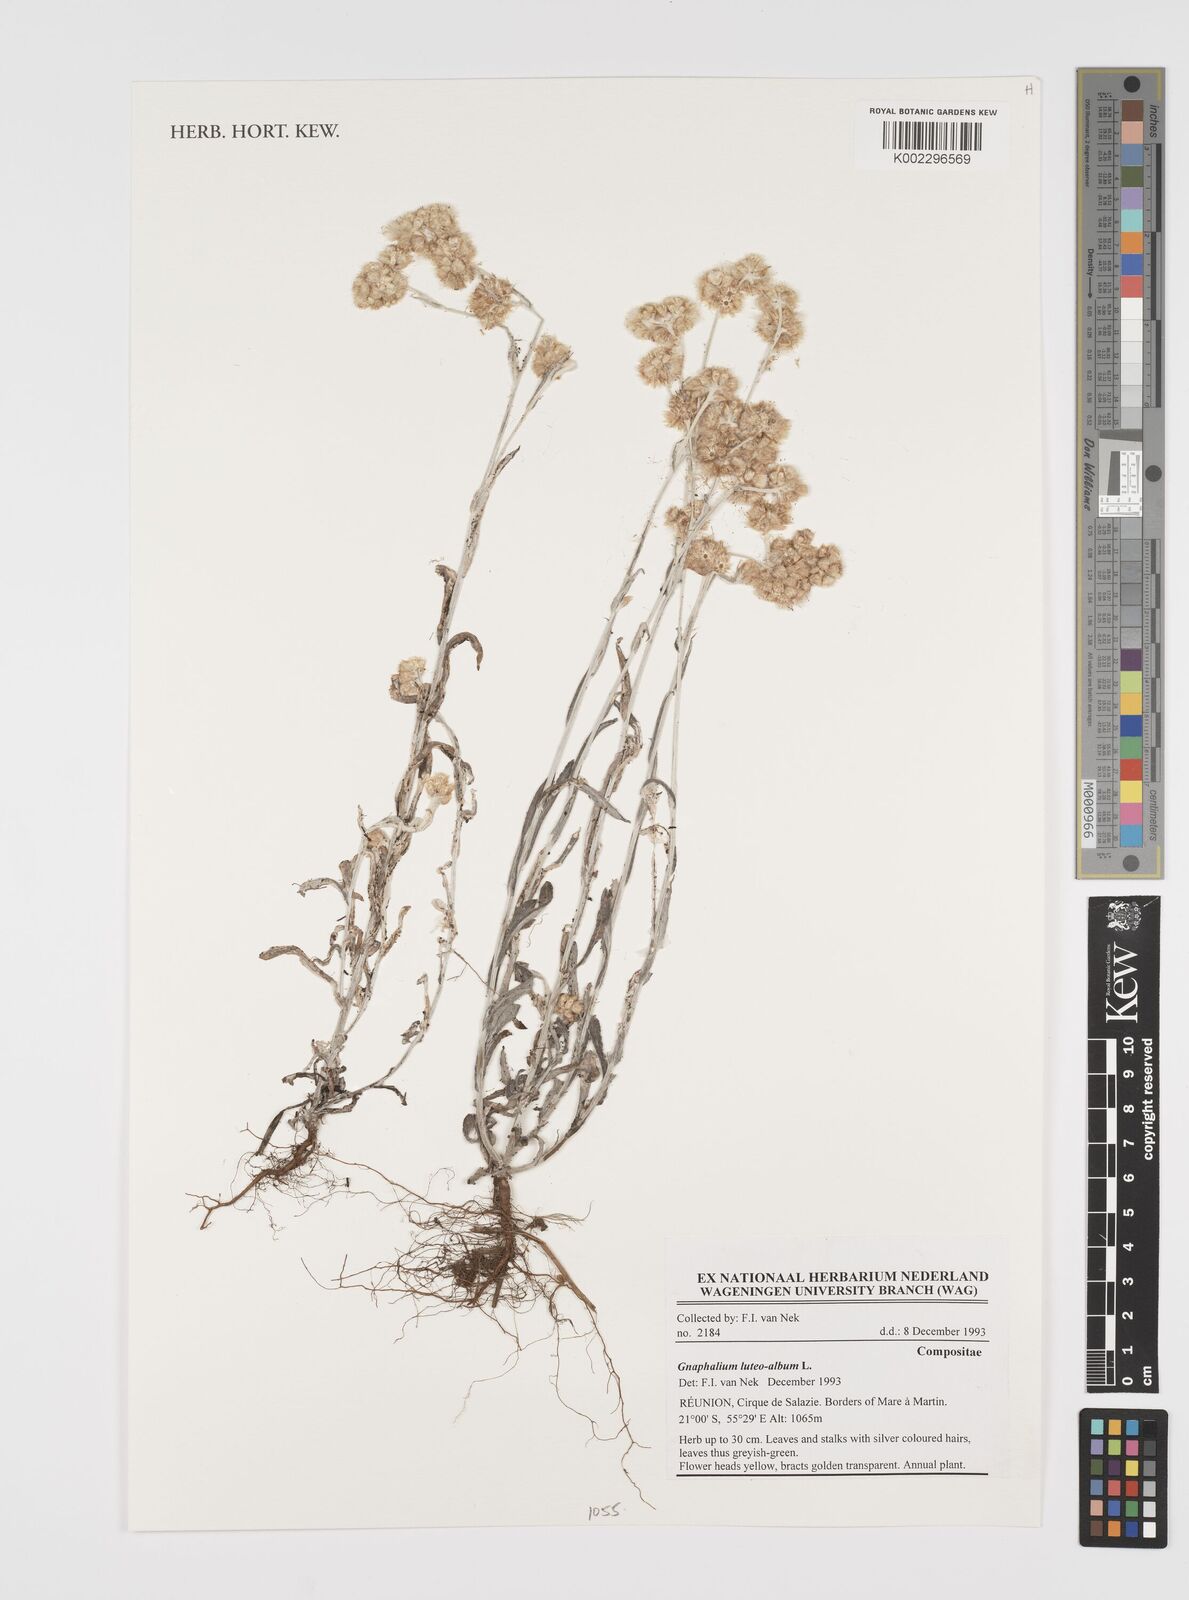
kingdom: Plantae
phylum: Tracheophyta
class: Magnoliopsida
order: Asterales
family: Asteraceae
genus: Helichrysum
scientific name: Helichrysum luteoalbum
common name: Daisy
